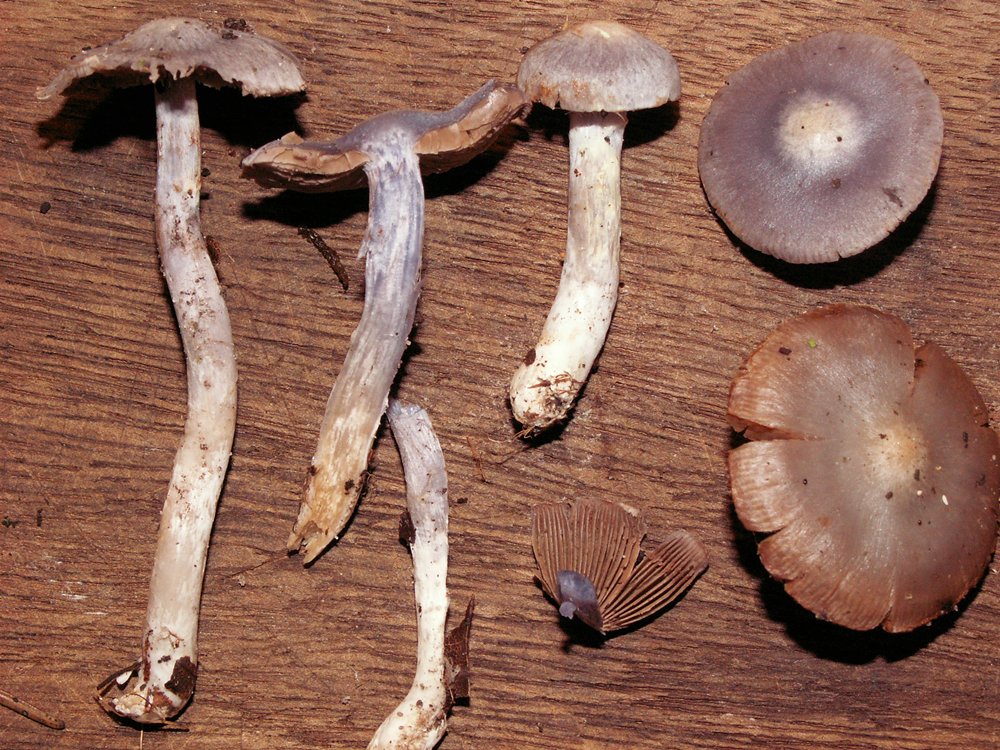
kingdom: Fungi
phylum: Basidiomycota
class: Agaricomycetes
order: Agaricales
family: Cortinariaceae
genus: Cortinarius
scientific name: Cortinarius alboviolaceus
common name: lysviolet slørhat
